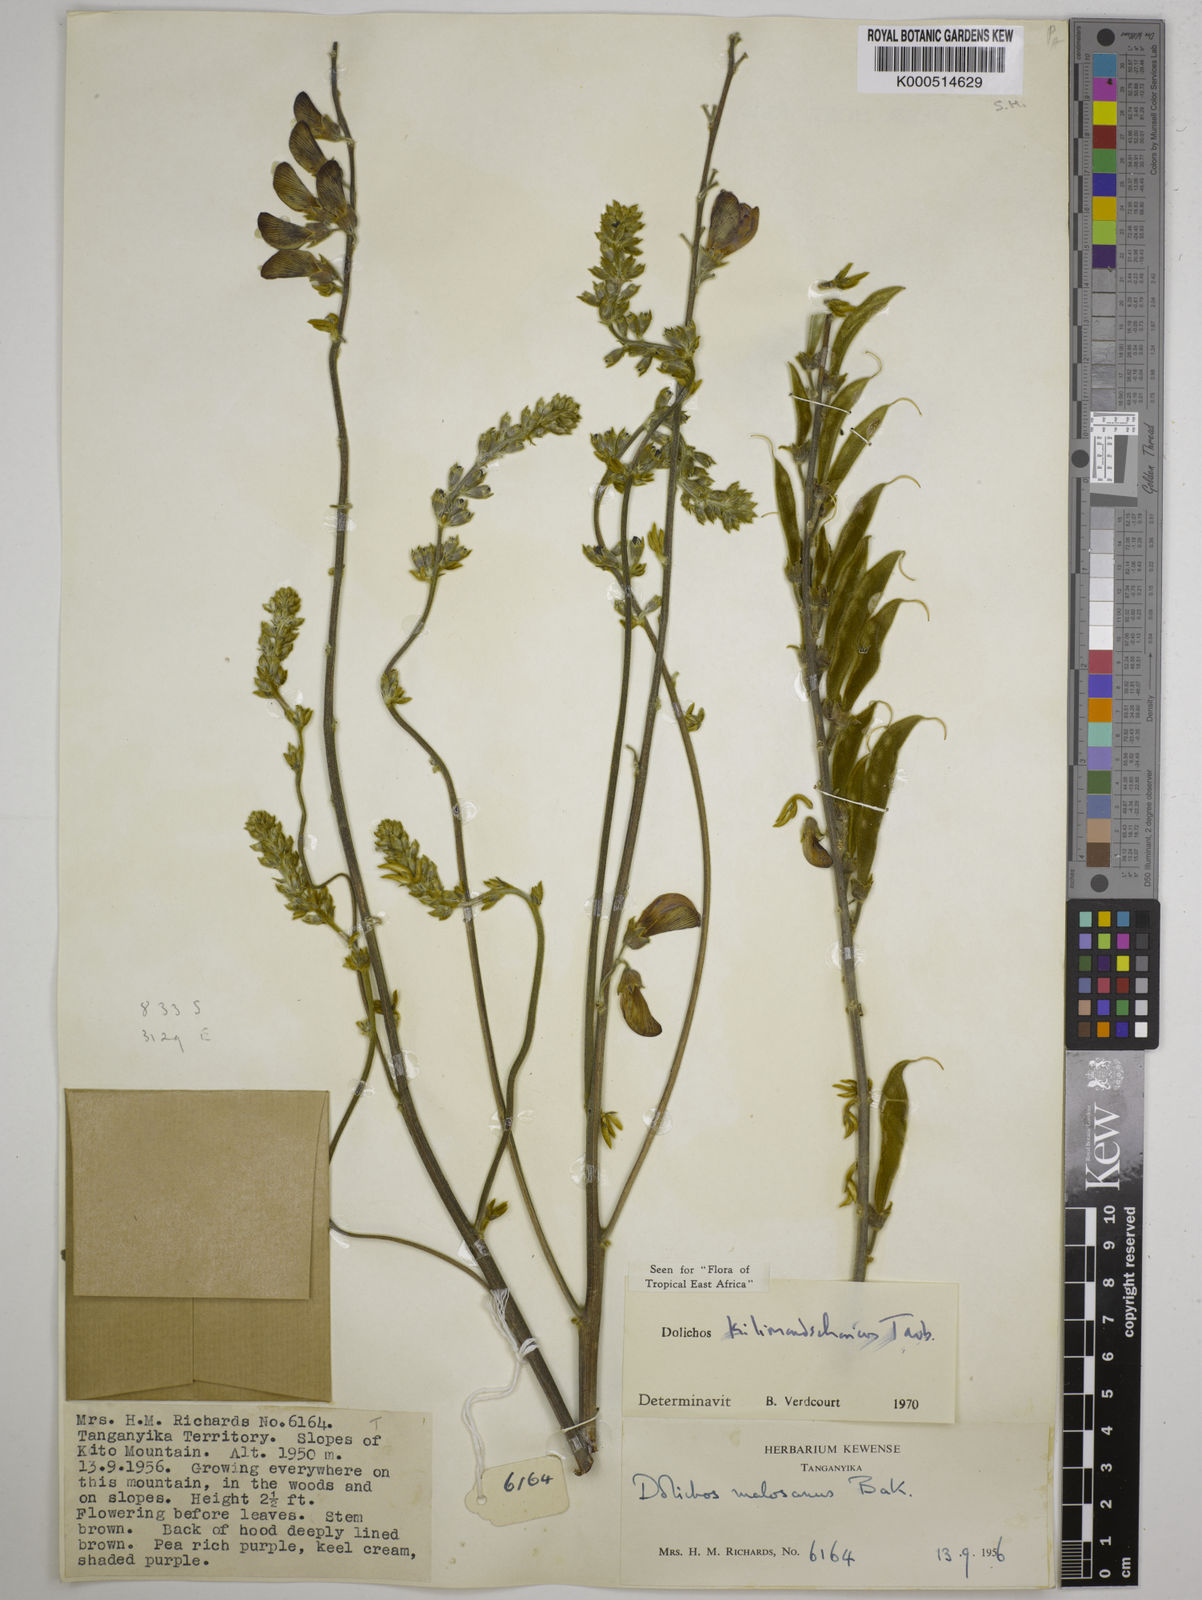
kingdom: Plantae
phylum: Tracheophyta
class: Magnoliopsida
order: Fabales
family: Fabaceae
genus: Dolichos
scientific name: Dolichos kilimandscharicus
